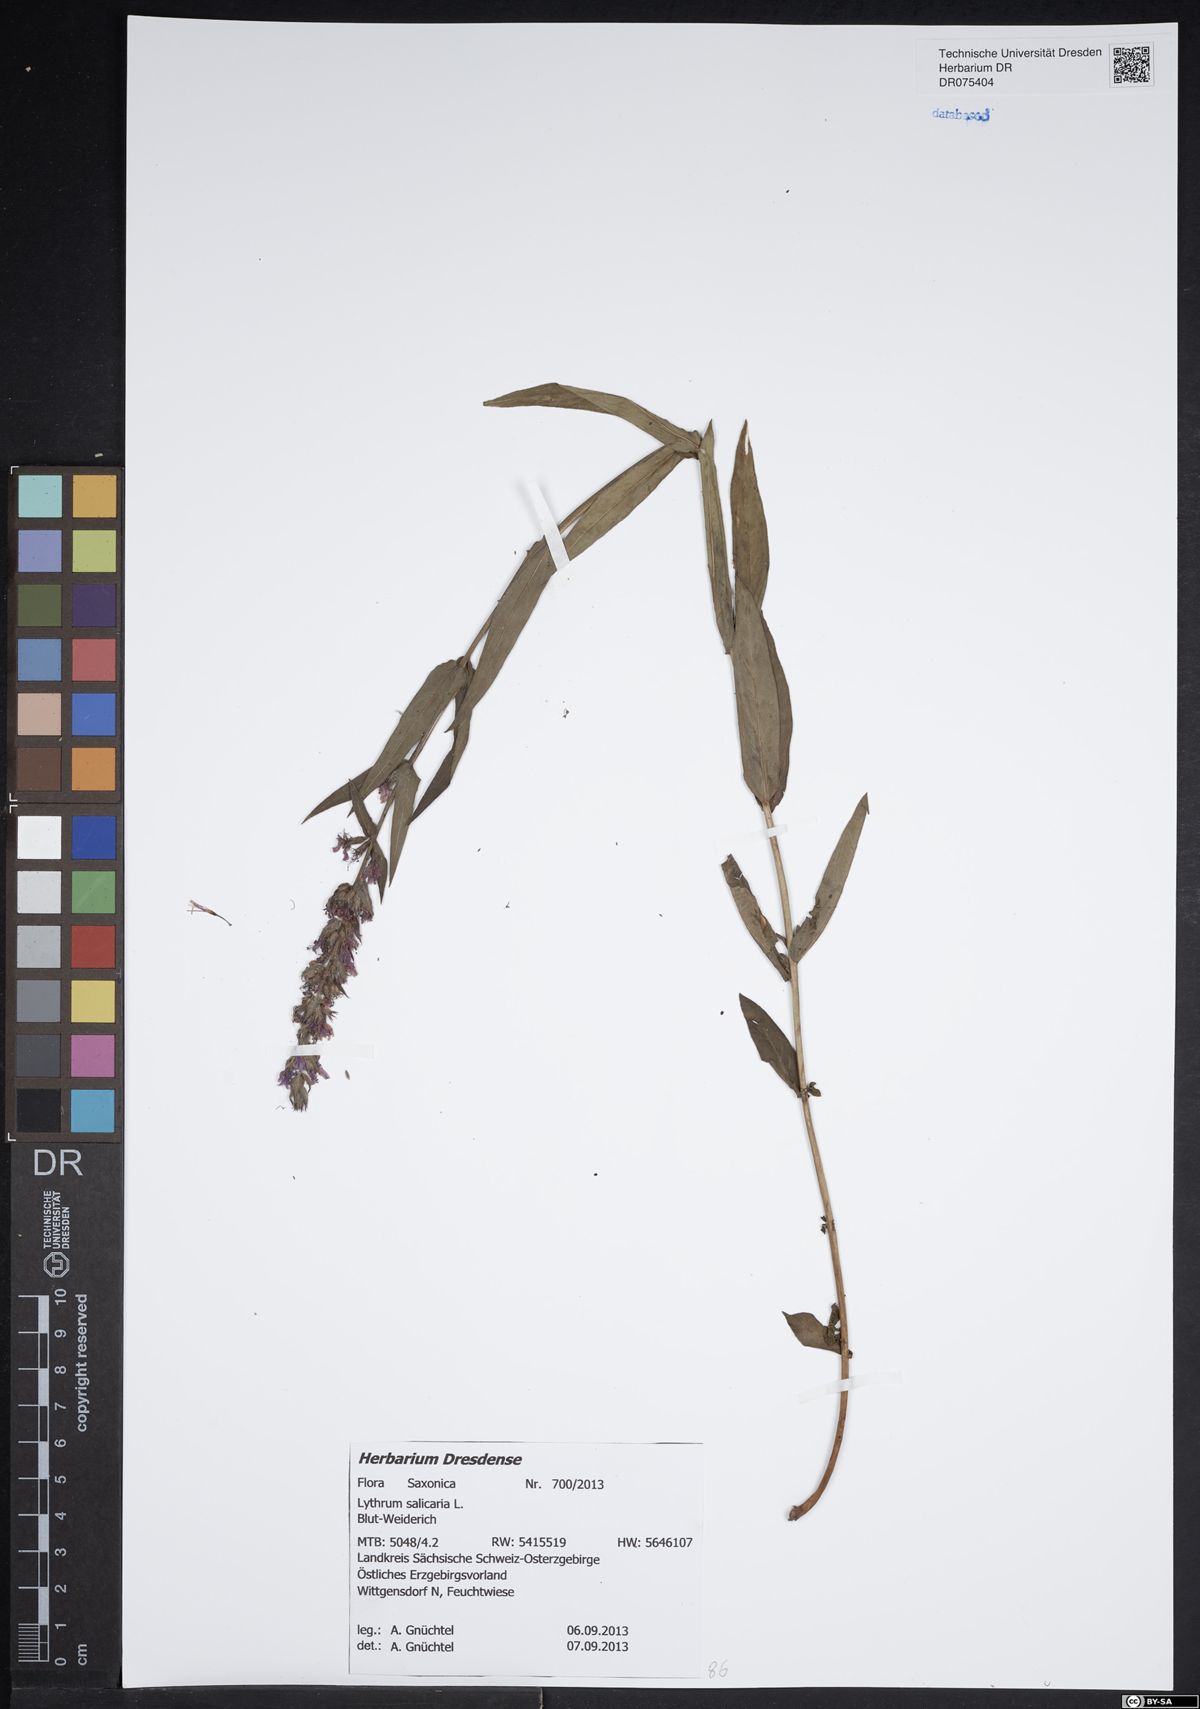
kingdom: Plantae
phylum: Tracheophyta
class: Magnoliopsida
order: Myrtales
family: Lythraceae
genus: Lythrum
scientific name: Lythrum salicaria
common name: Purple loosestrife
